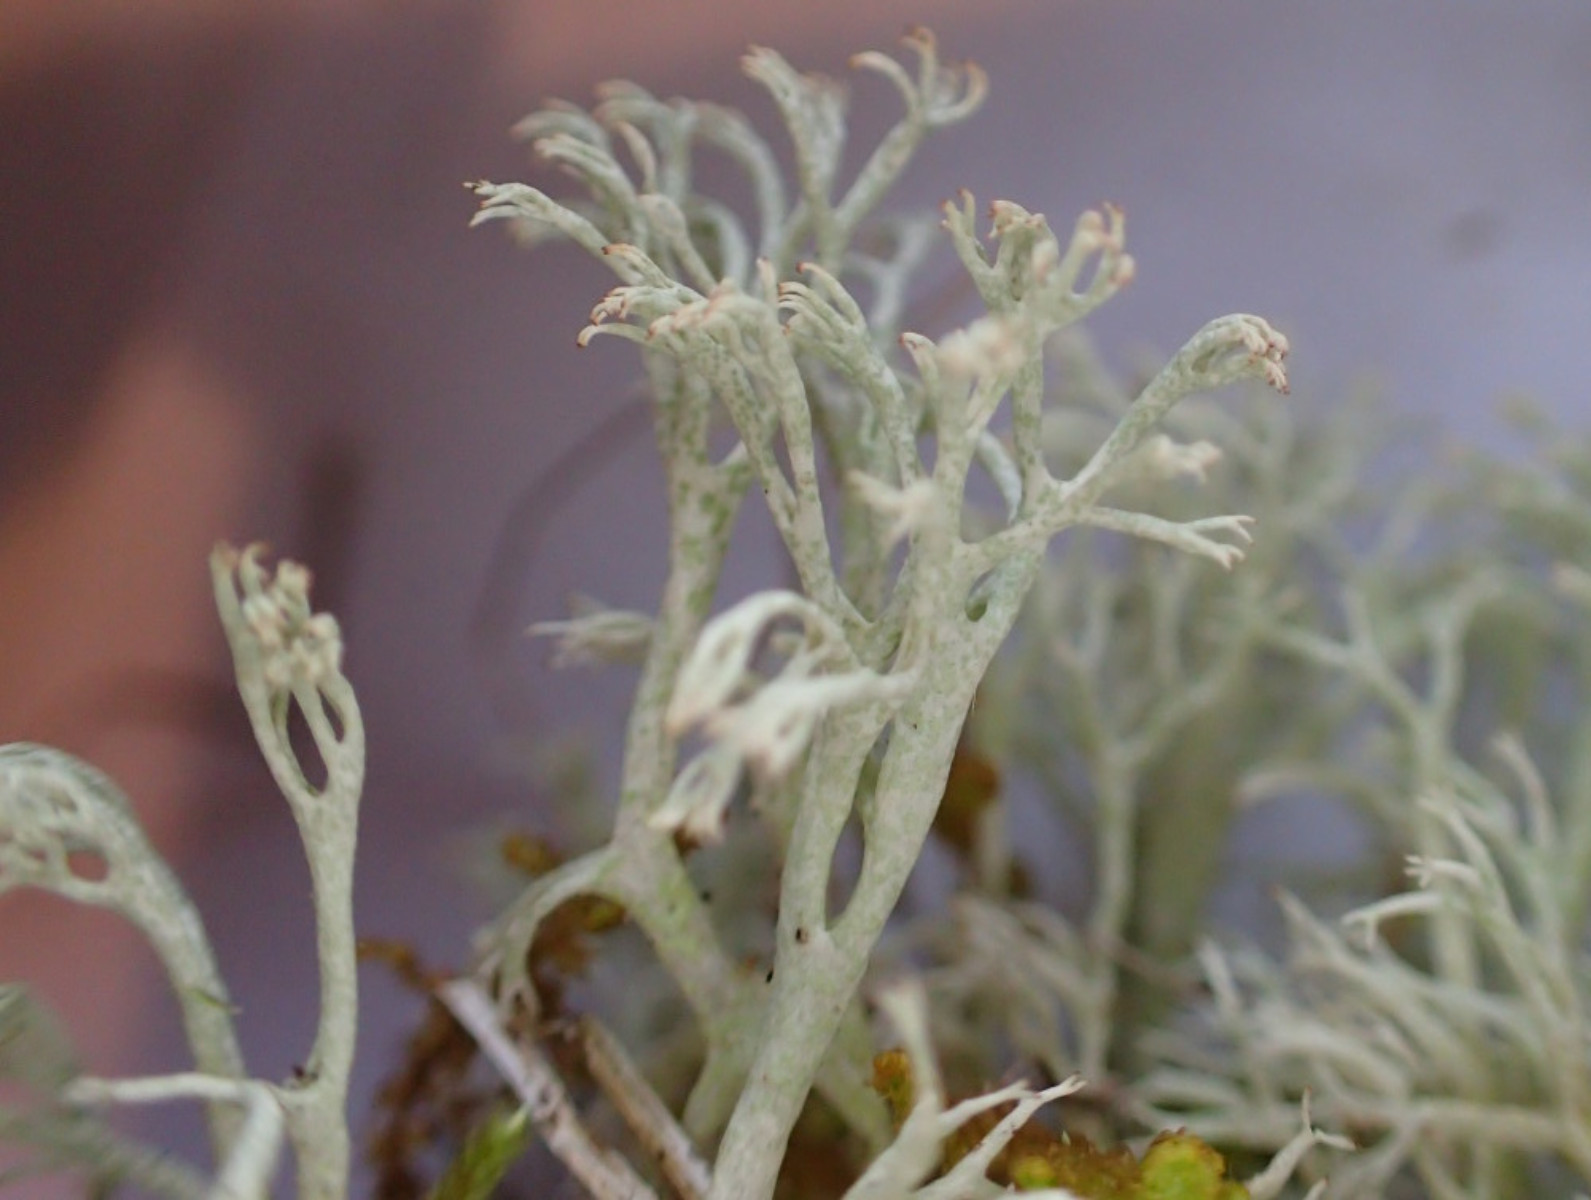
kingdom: Fungi
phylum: Ascomycota
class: Lecanoromycetes
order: Lecanorales
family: Cladoniaceae
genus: Cladonia
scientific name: Cladonia arbuscula
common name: gulhvid rensdyrlav
